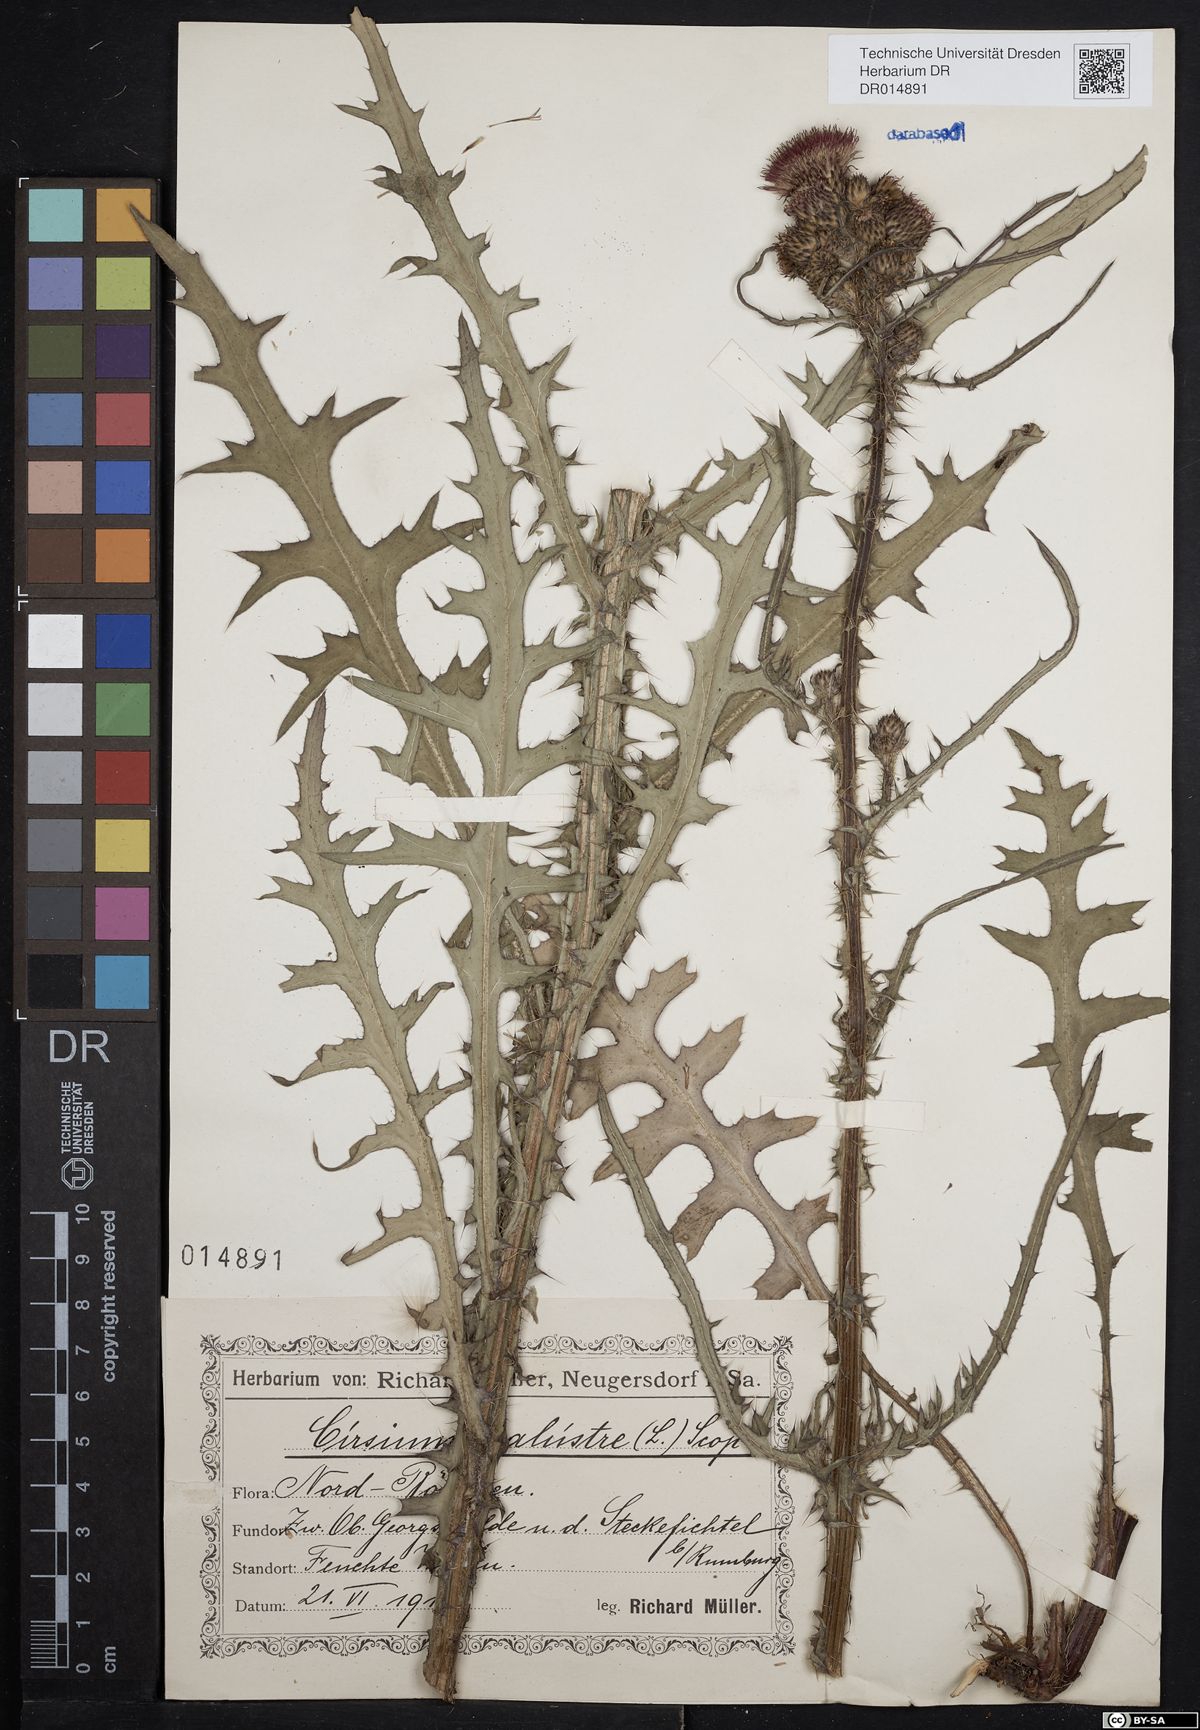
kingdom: Plantae
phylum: Tracheophyta
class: Magnoliopsida
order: Asterales
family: Asteraceae
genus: Cirsium
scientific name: Cirsium palustre
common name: Marsh thistle
